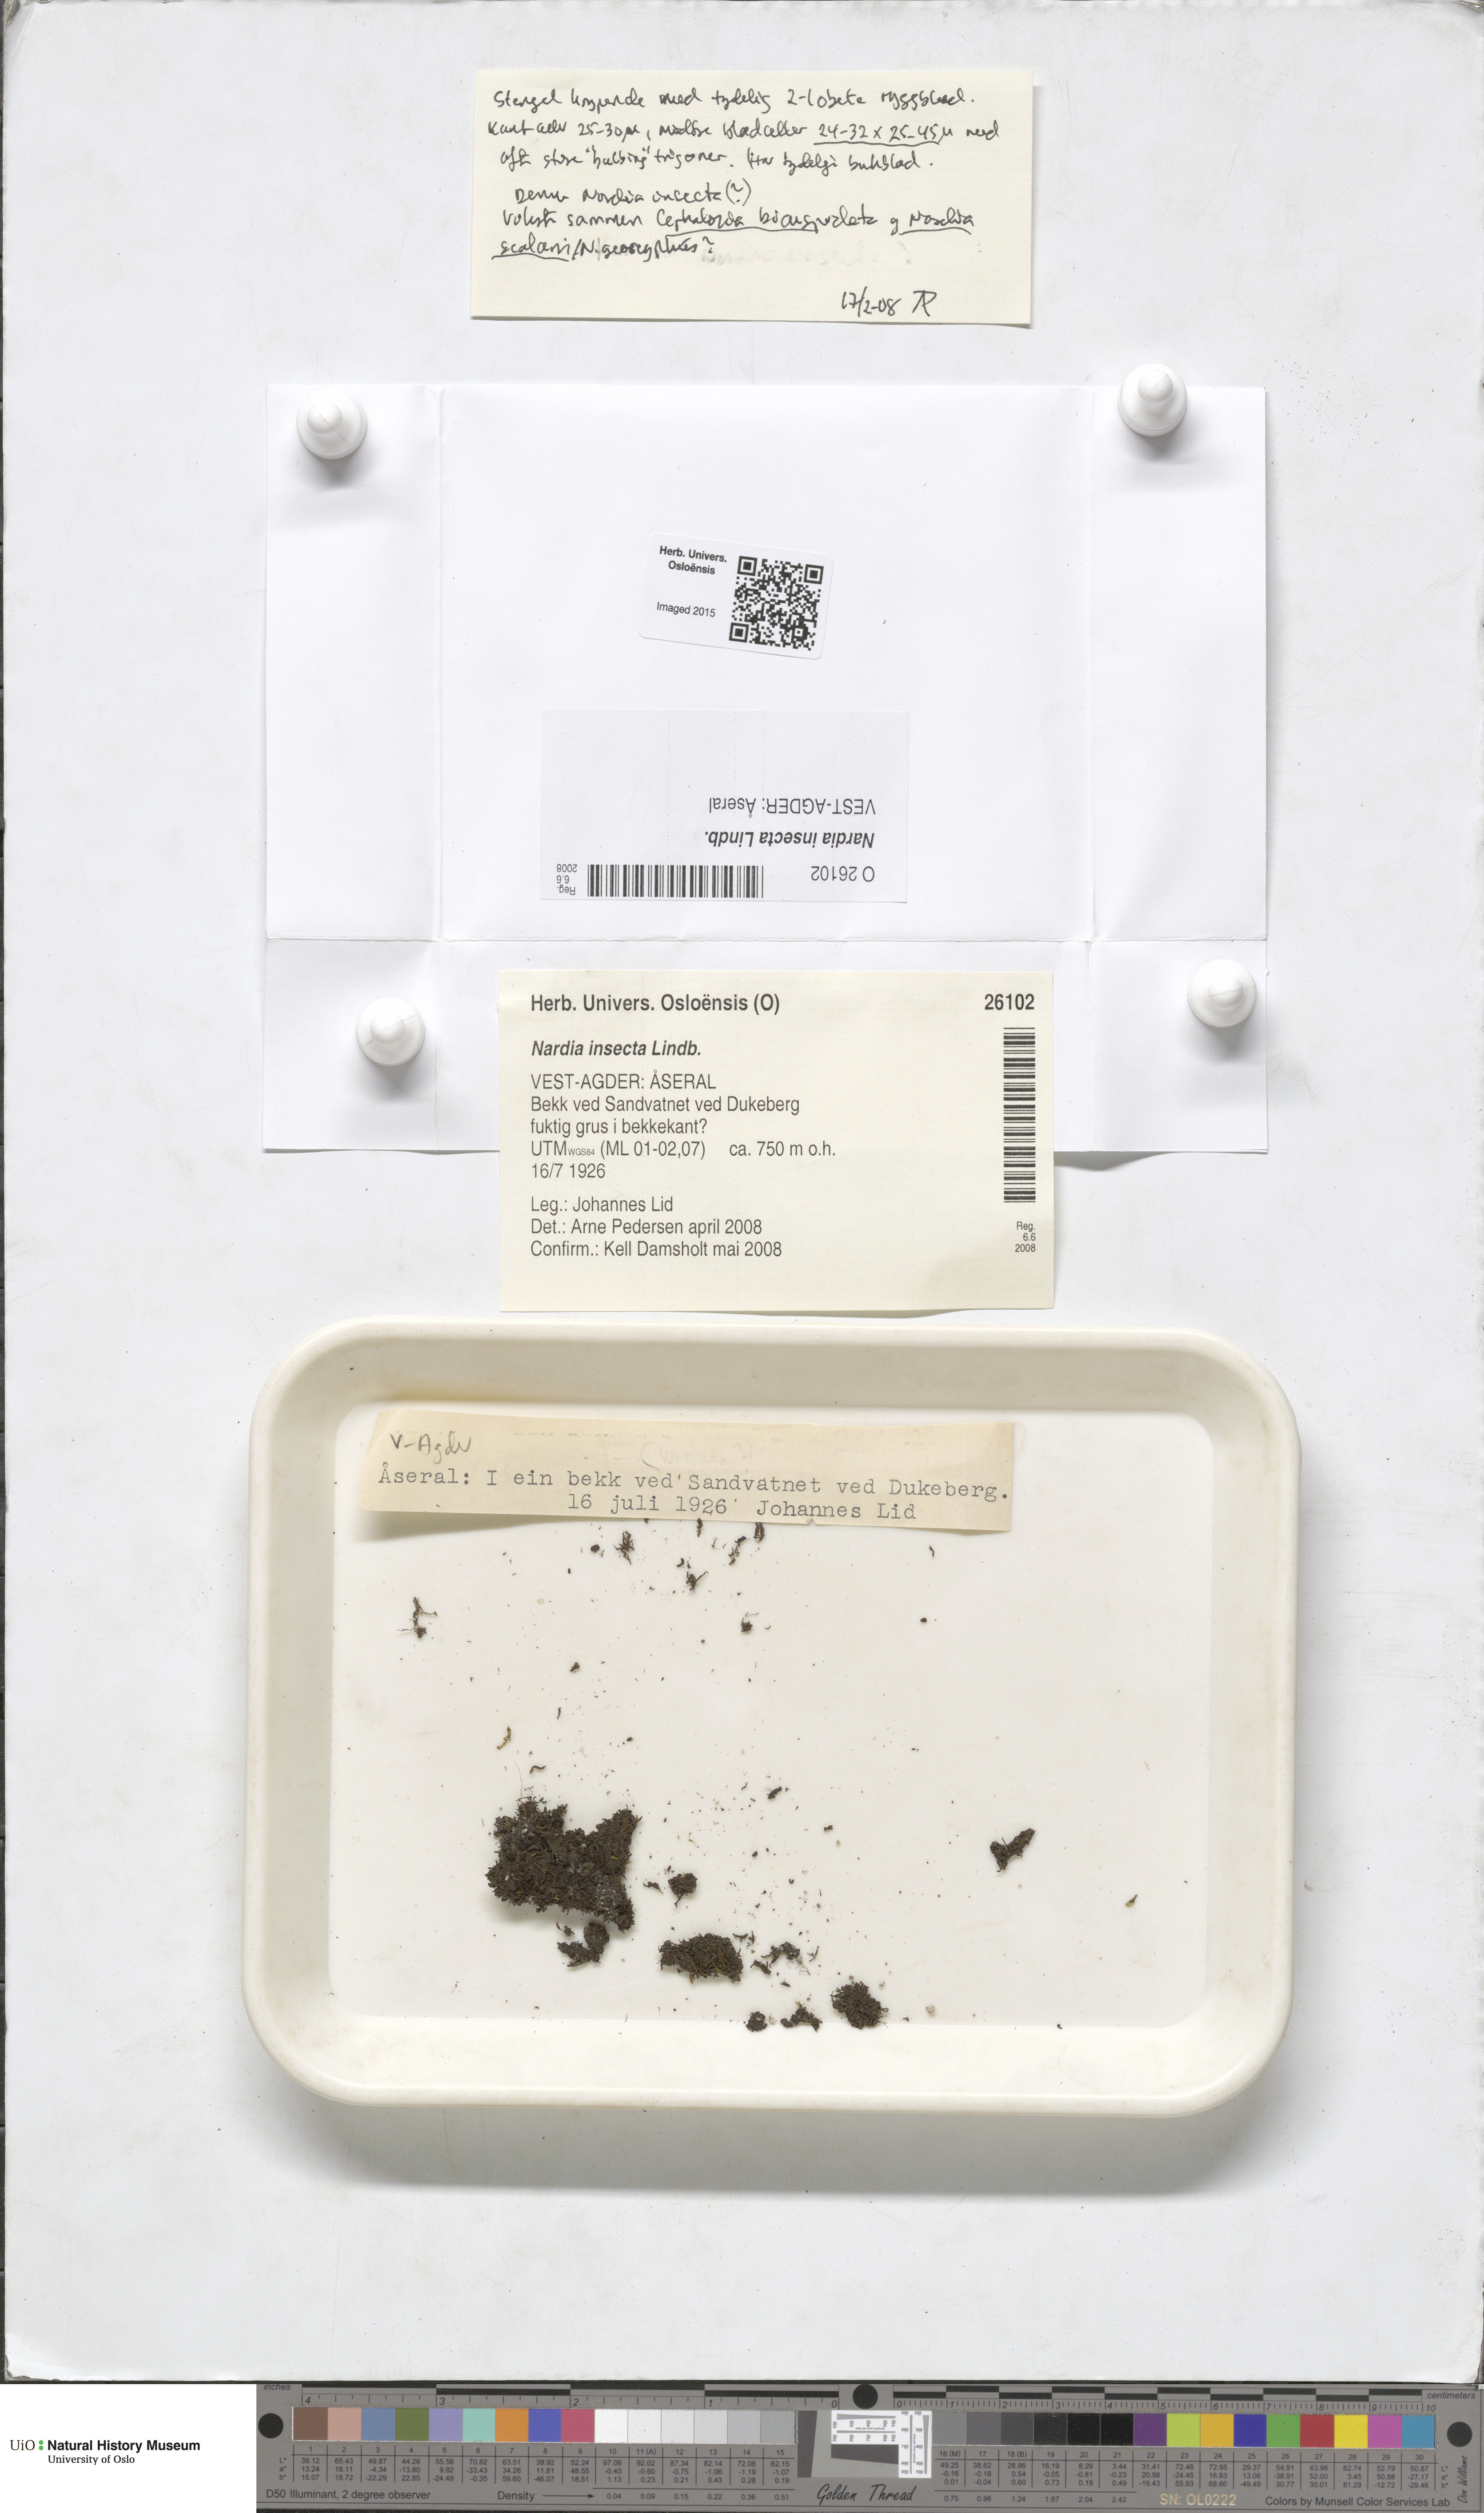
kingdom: Plantae
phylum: Marchantiophyta
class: Jungermanniopsida
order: Jungermanniales
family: Gymnomitriaceae
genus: Nardia
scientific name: Nardia insecta
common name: Two-lobed flapwort
